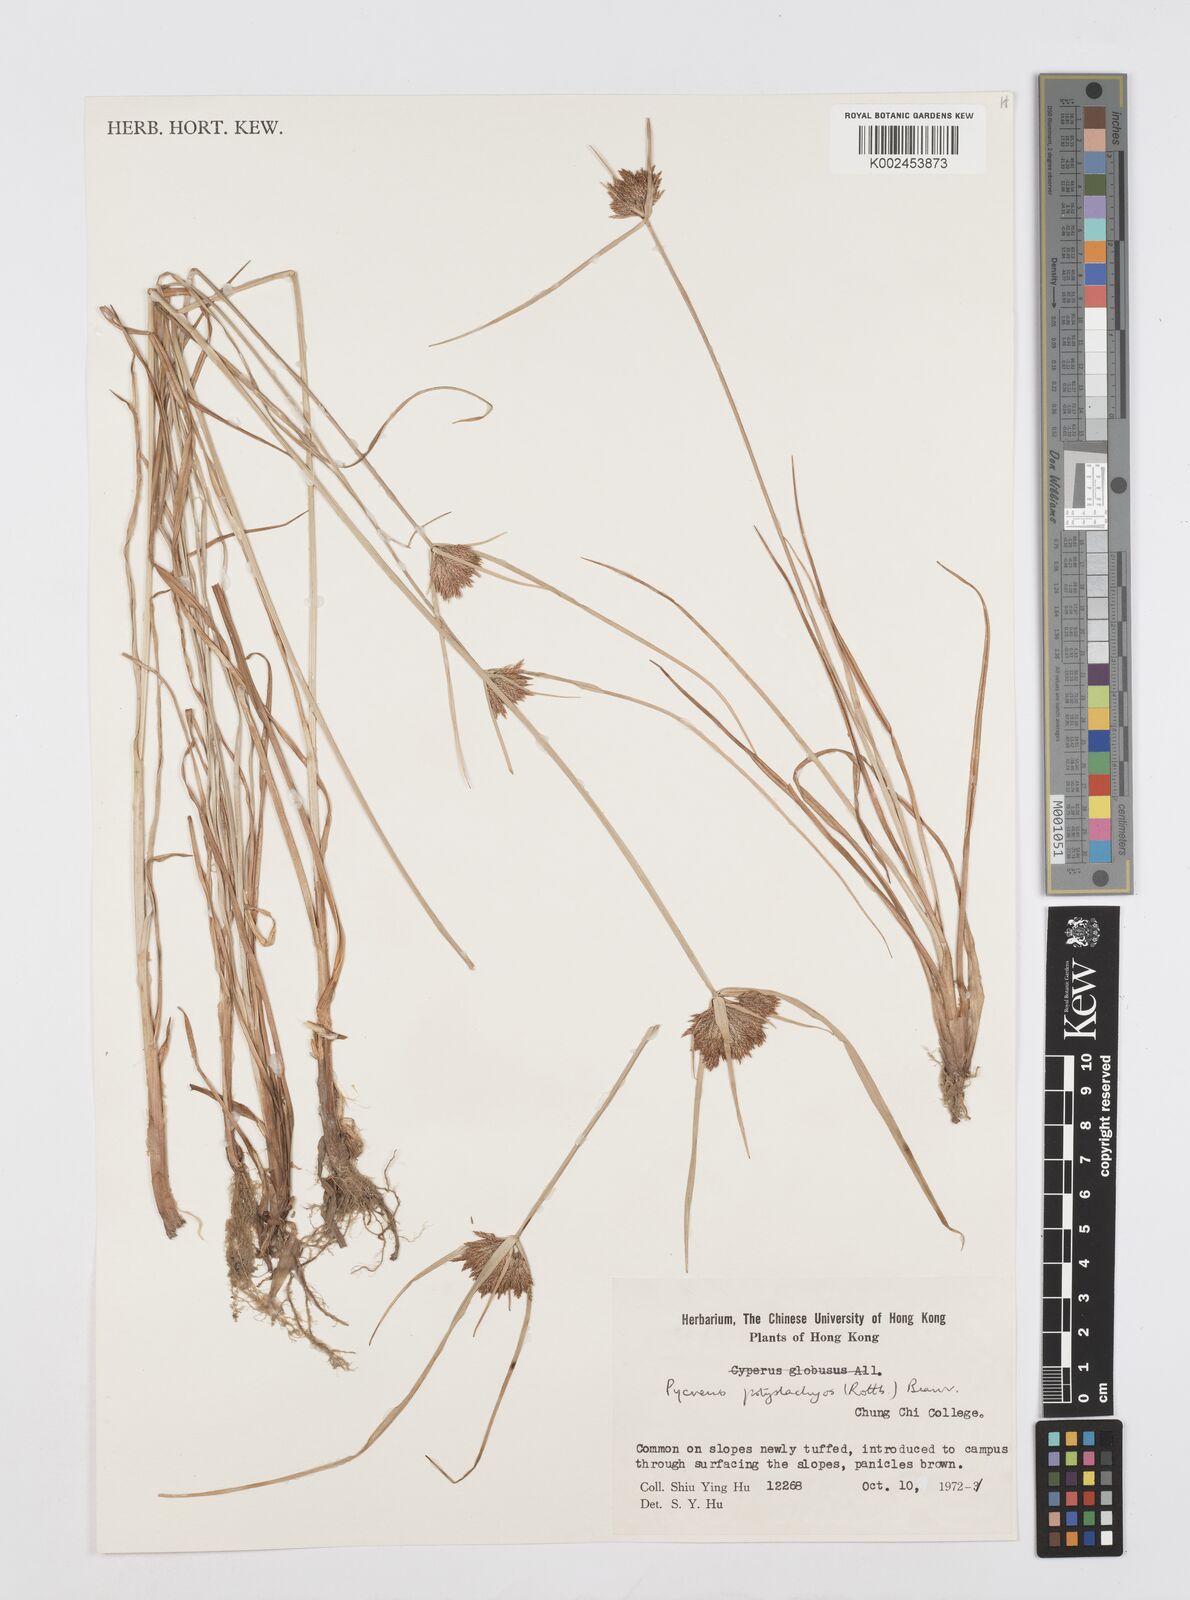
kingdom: Plantae
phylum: Tracheophyta
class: Liliopsida
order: Poales
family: Cyperaceae
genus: Cyperus
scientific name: Cyperus polystachyos
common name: Bunchy flat sedge
